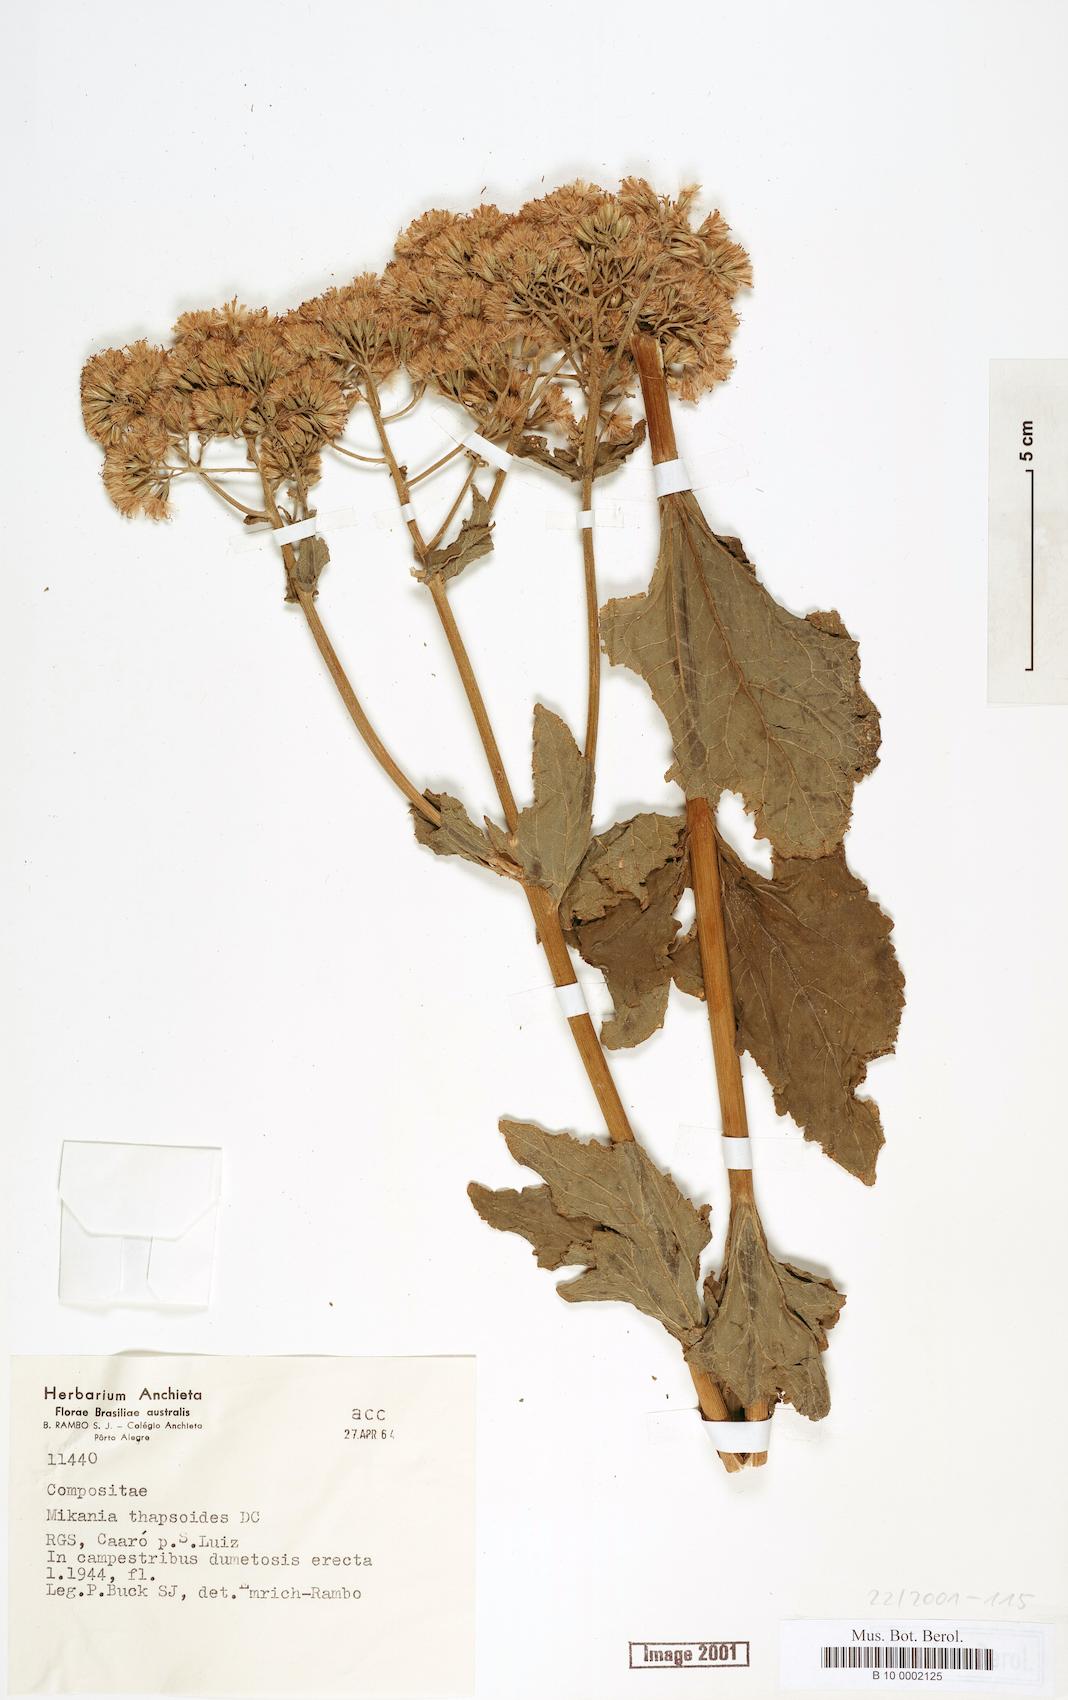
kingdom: Plantae
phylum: Tracheophyta
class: Magnoliopsida
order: Asterales
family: Asteraceae
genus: Mikania
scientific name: Mikania thapsoides
